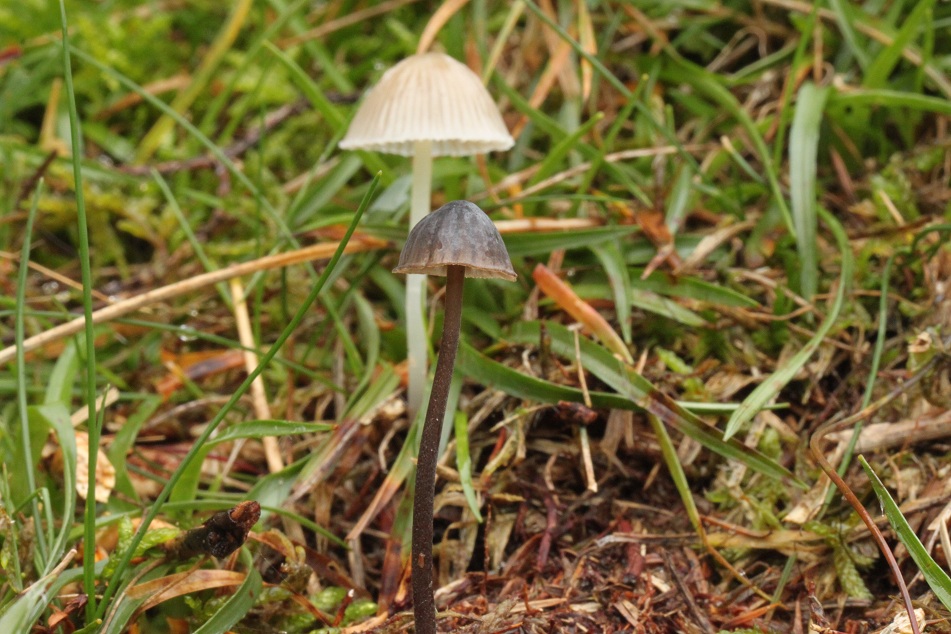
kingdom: Fungi
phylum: Basidiomycota
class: Agaricomycetes
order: Agaricales
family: Mycenaceae
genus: Mycena
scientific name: Mycena galopus
